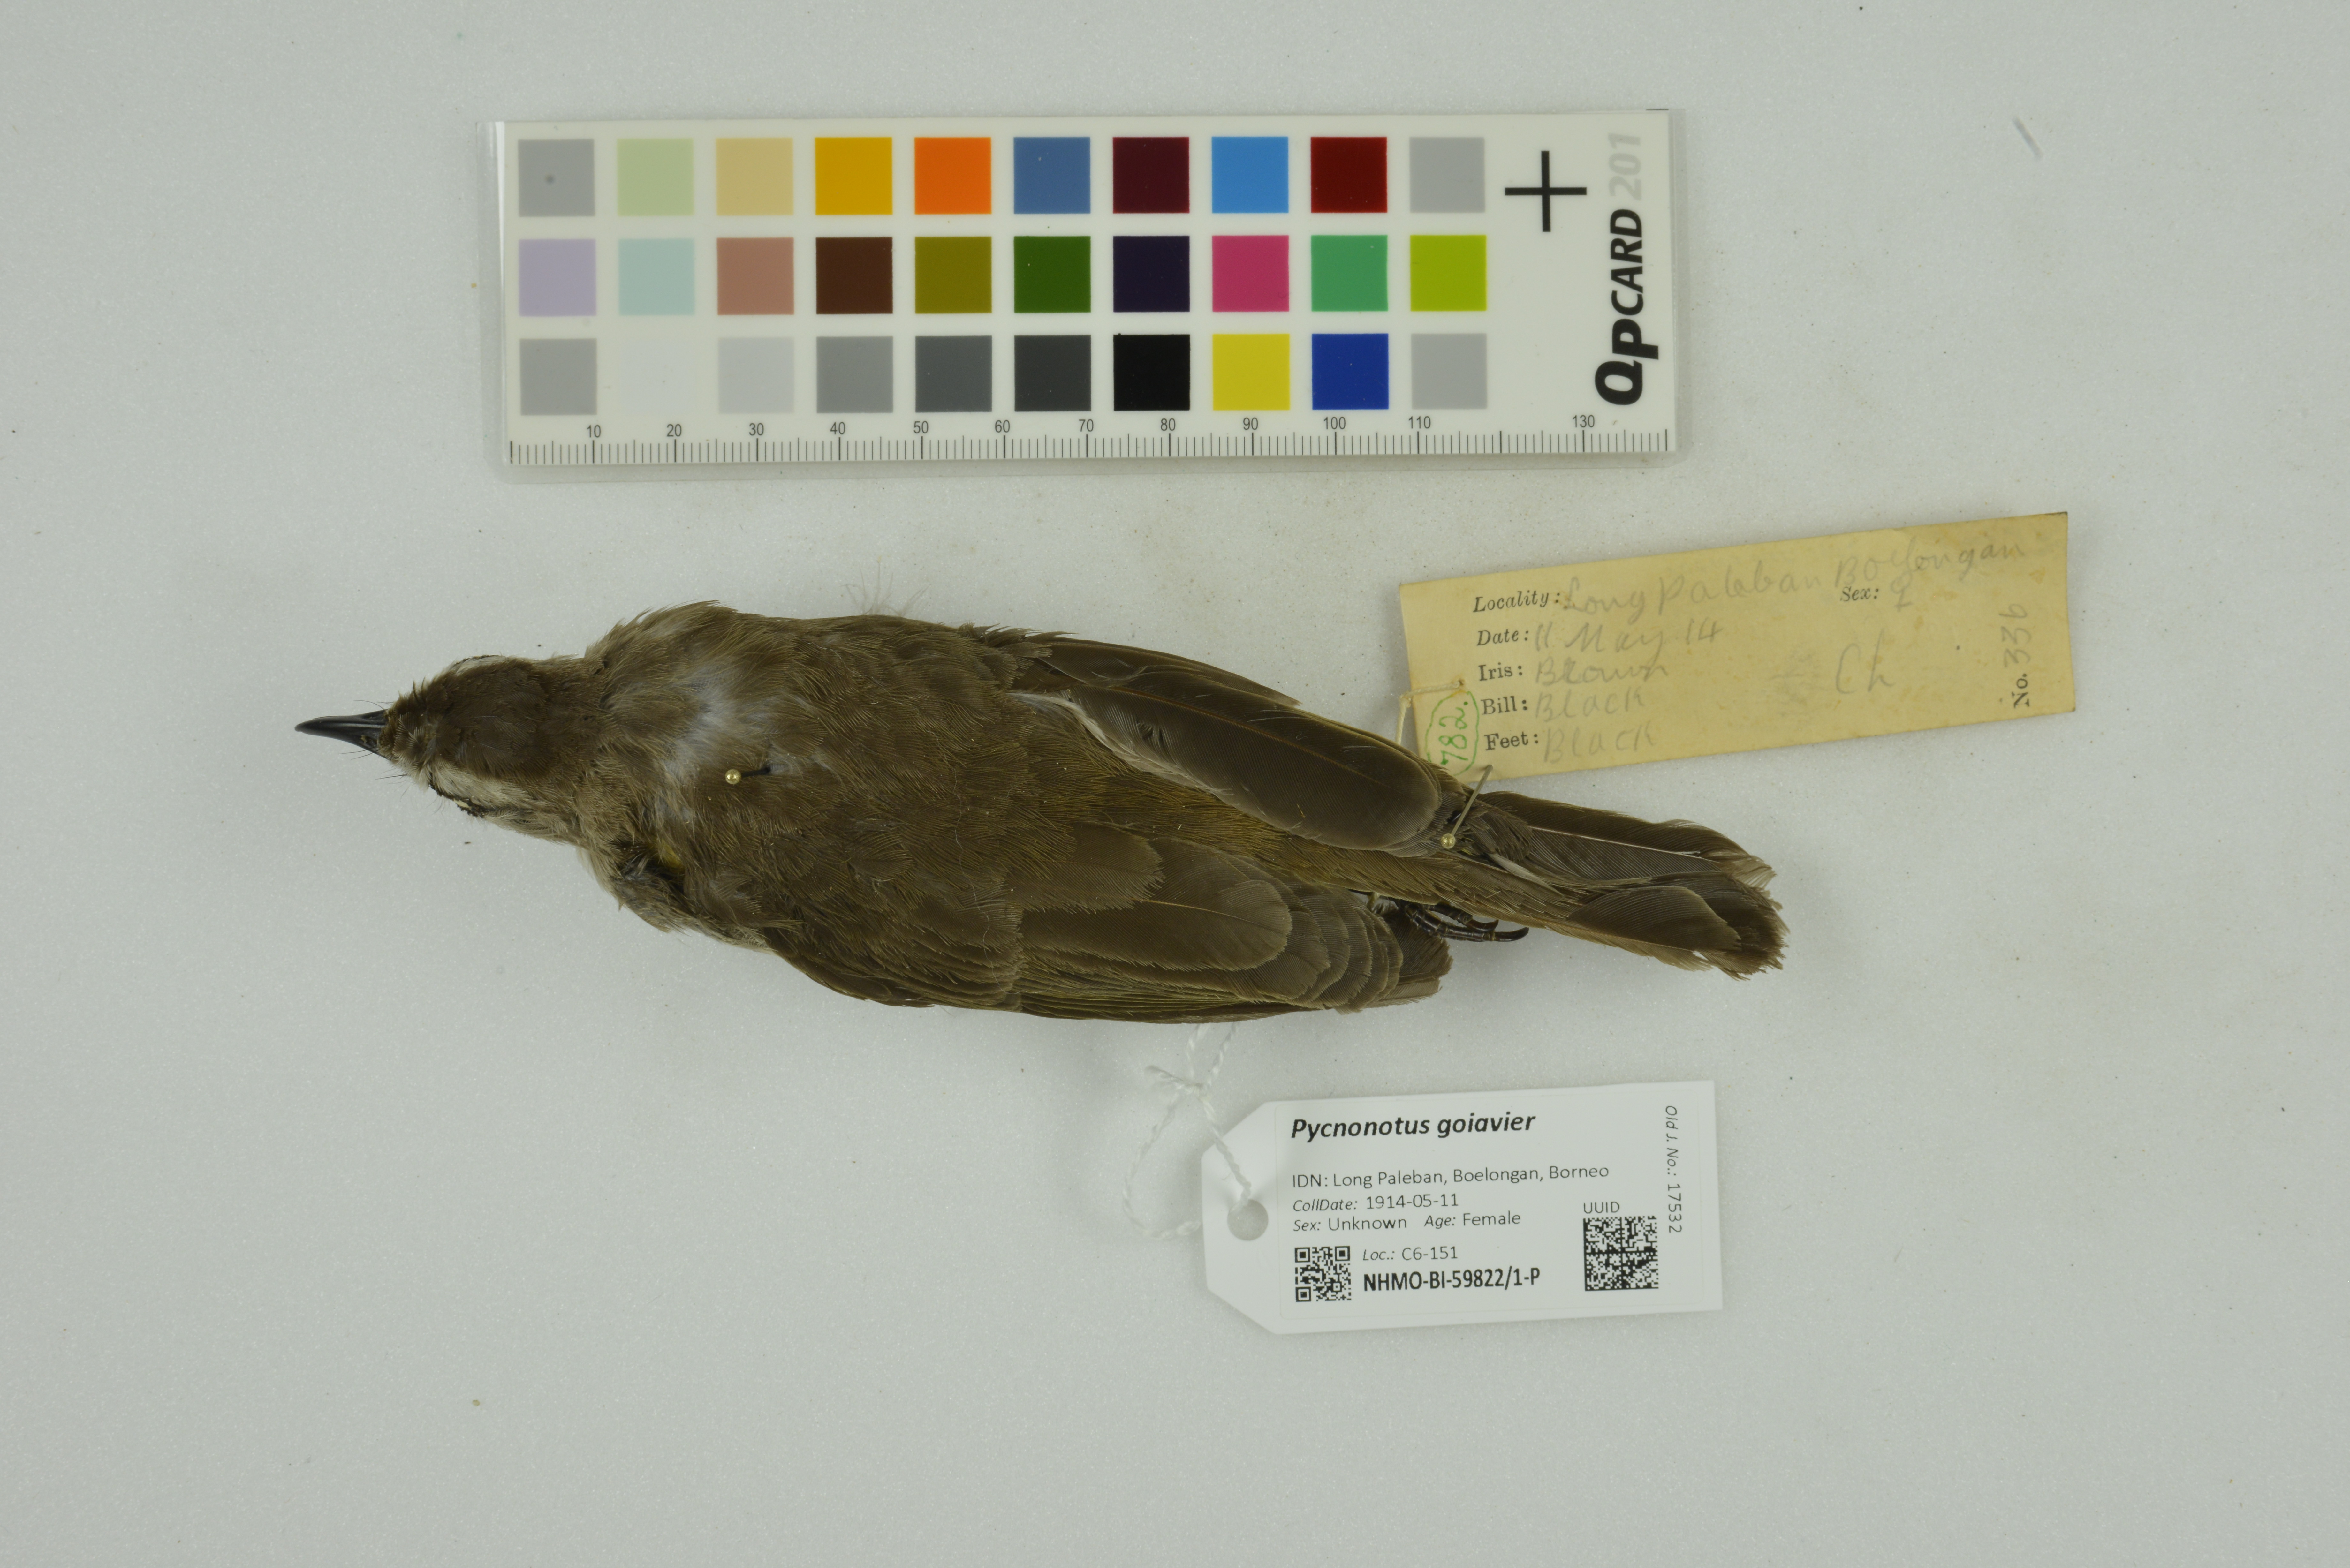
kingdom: Animalia
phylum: Chordata
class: Aves
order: Passeriformes
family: Pycnonotidae
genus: Pycnonotus
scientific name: Pycnonotus goiavier
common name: Yellow-vented bulbul
